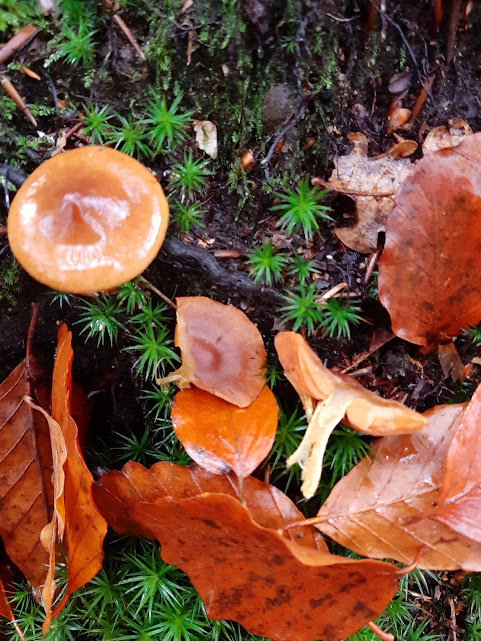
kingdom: Fungi
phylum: Basidiomycota
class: Agaricomycetes
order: Agaricales
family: Cortinariaceae
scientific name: Cortinariaceae
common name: slørhatfamilien
